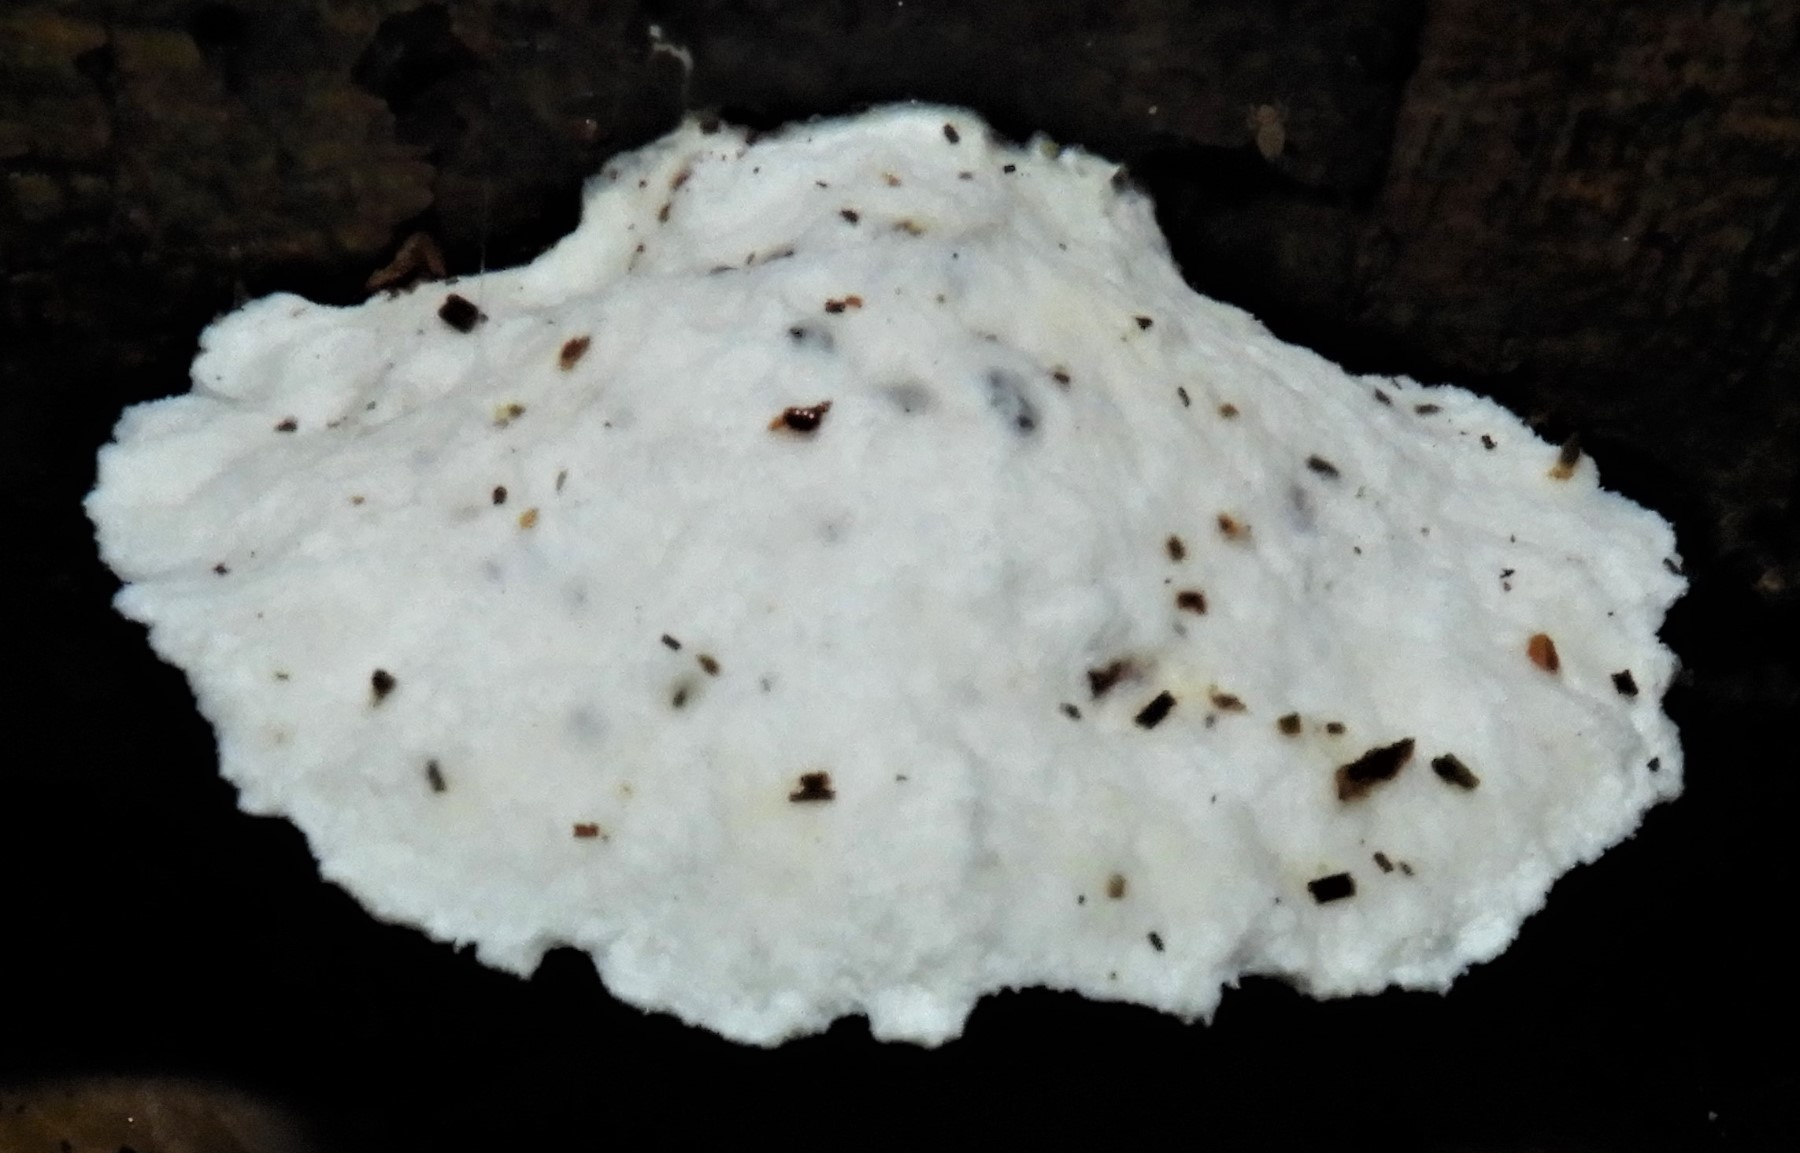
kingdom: Fungi
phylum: Basidiomycota
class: Agaricomycetes
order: Polyporales
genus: Amaropostia
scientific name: Amaropostia stiptica
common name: bitter kødporesvamp
